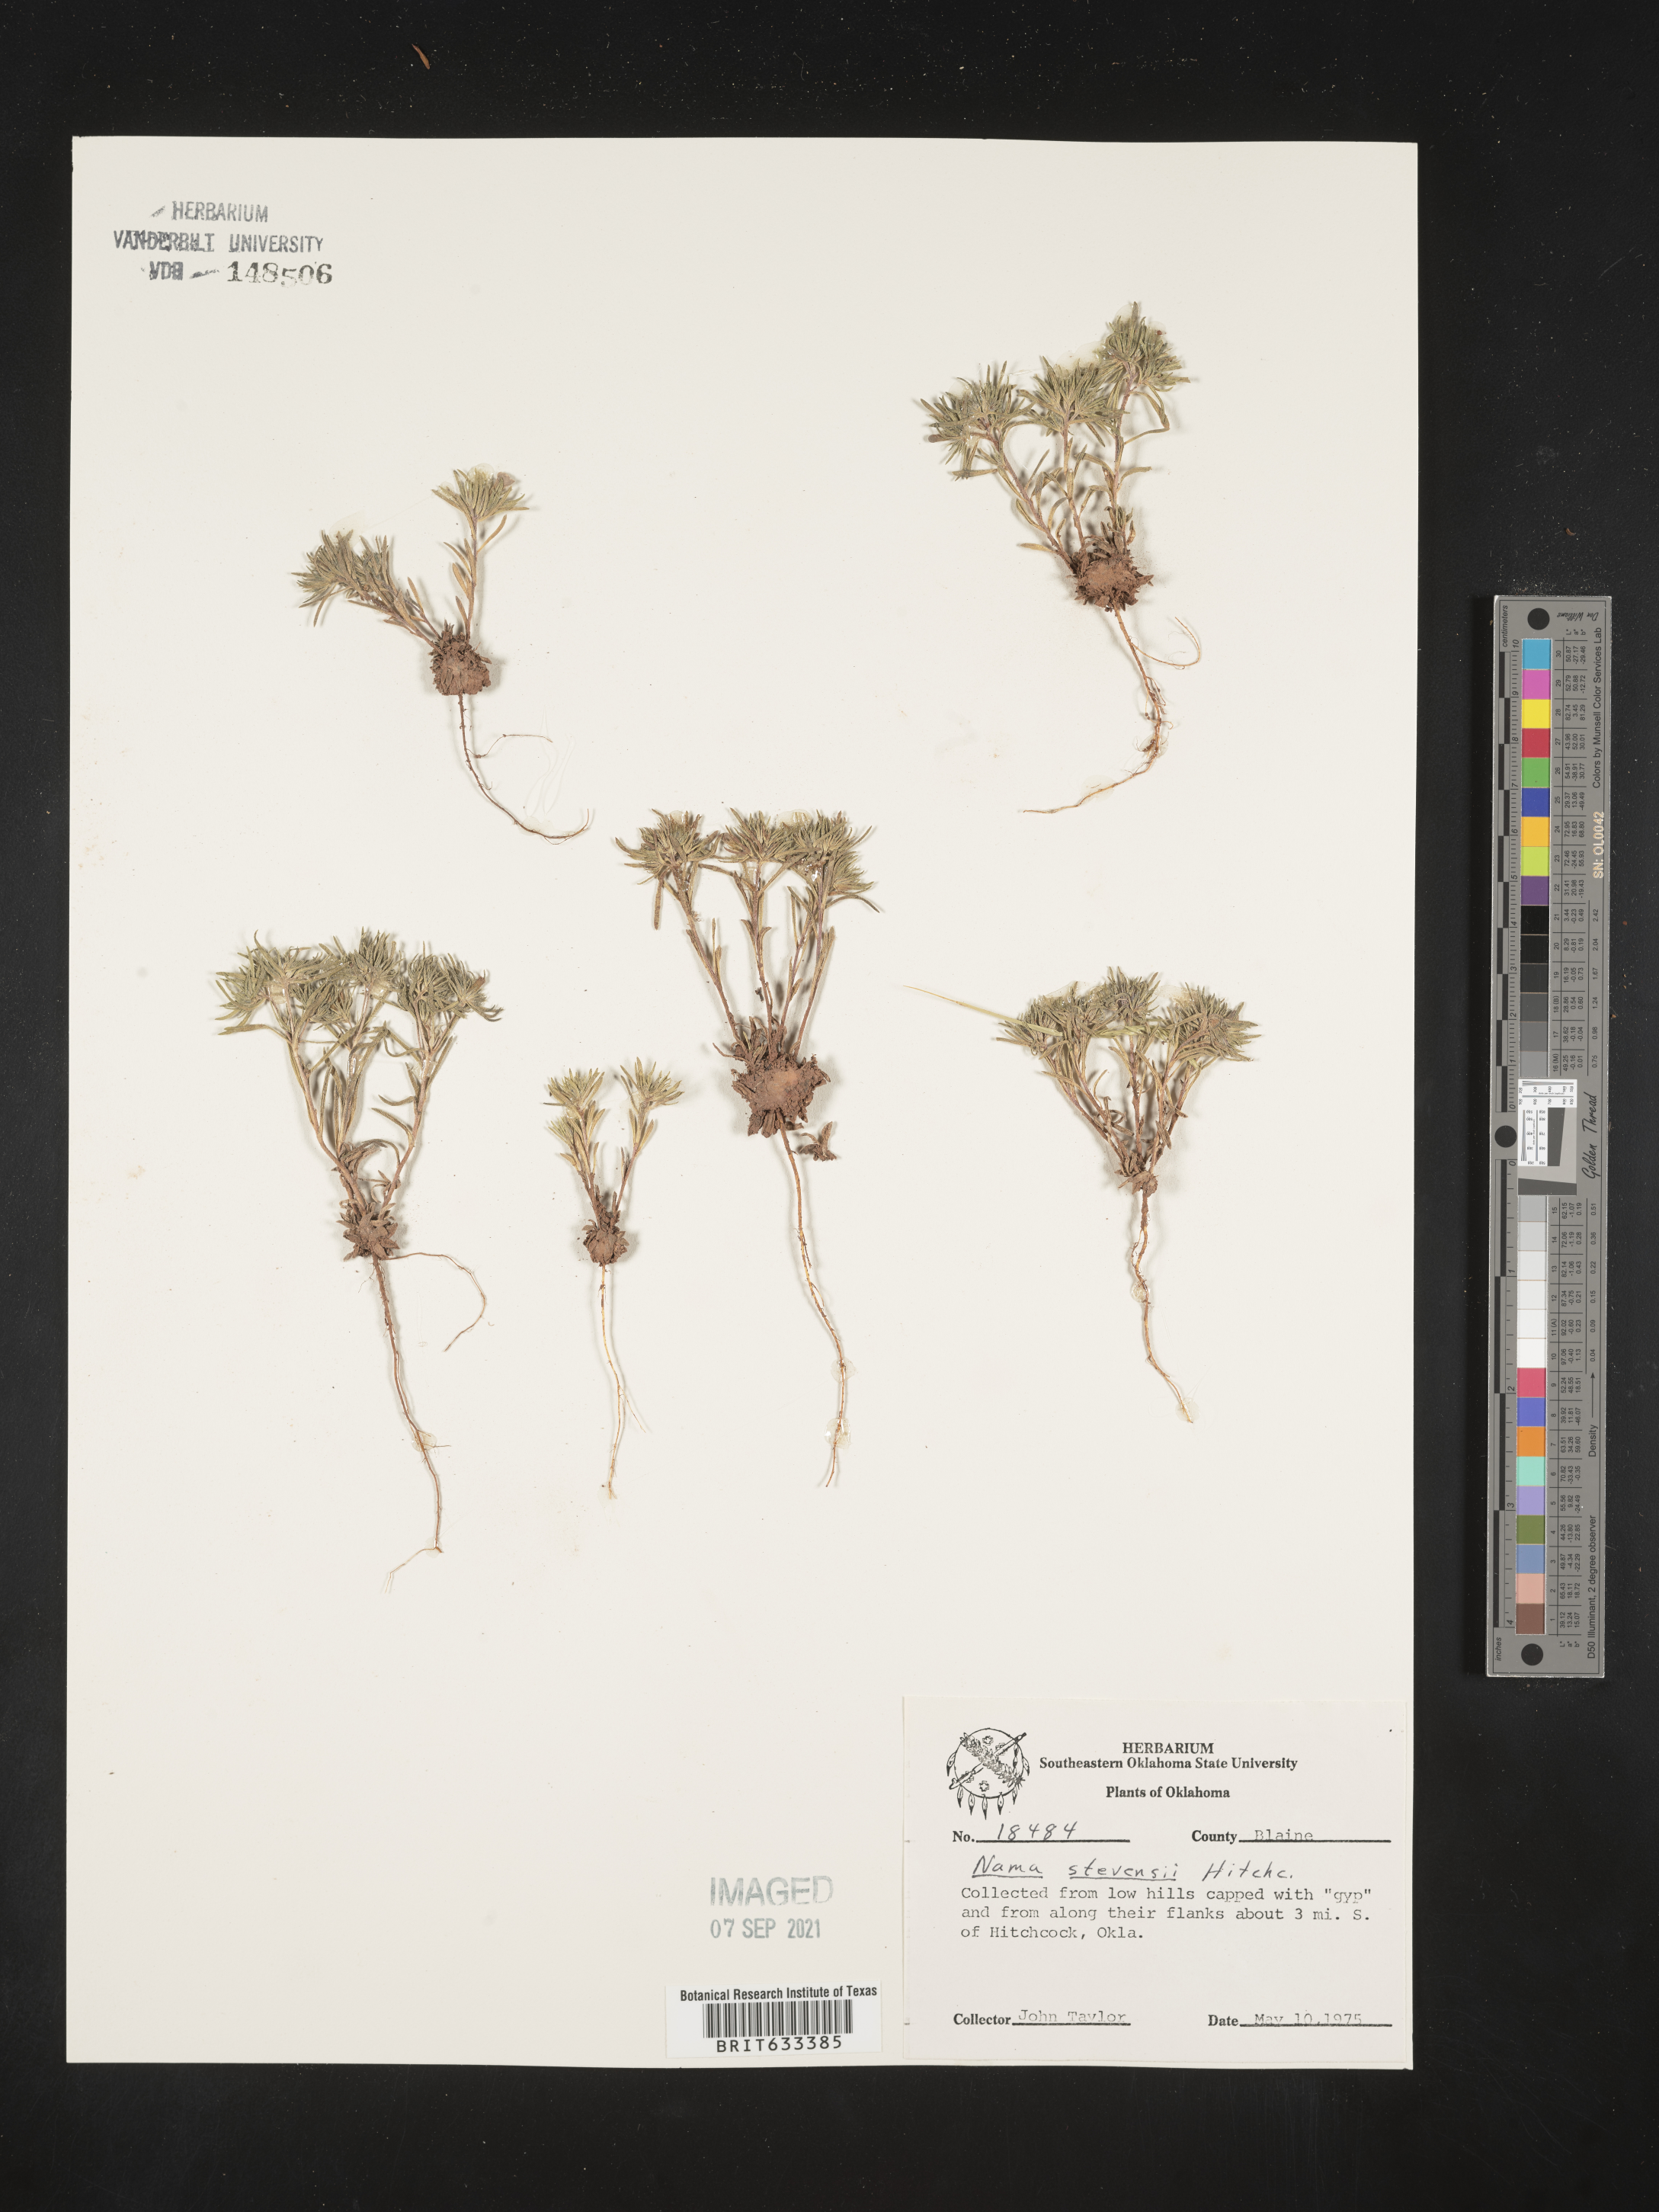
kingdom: Plantae
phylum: Tracheophyta
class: Magnoliopsida
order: Boraginales
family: Namaceae
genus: Nama
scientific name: Nama stevensii
